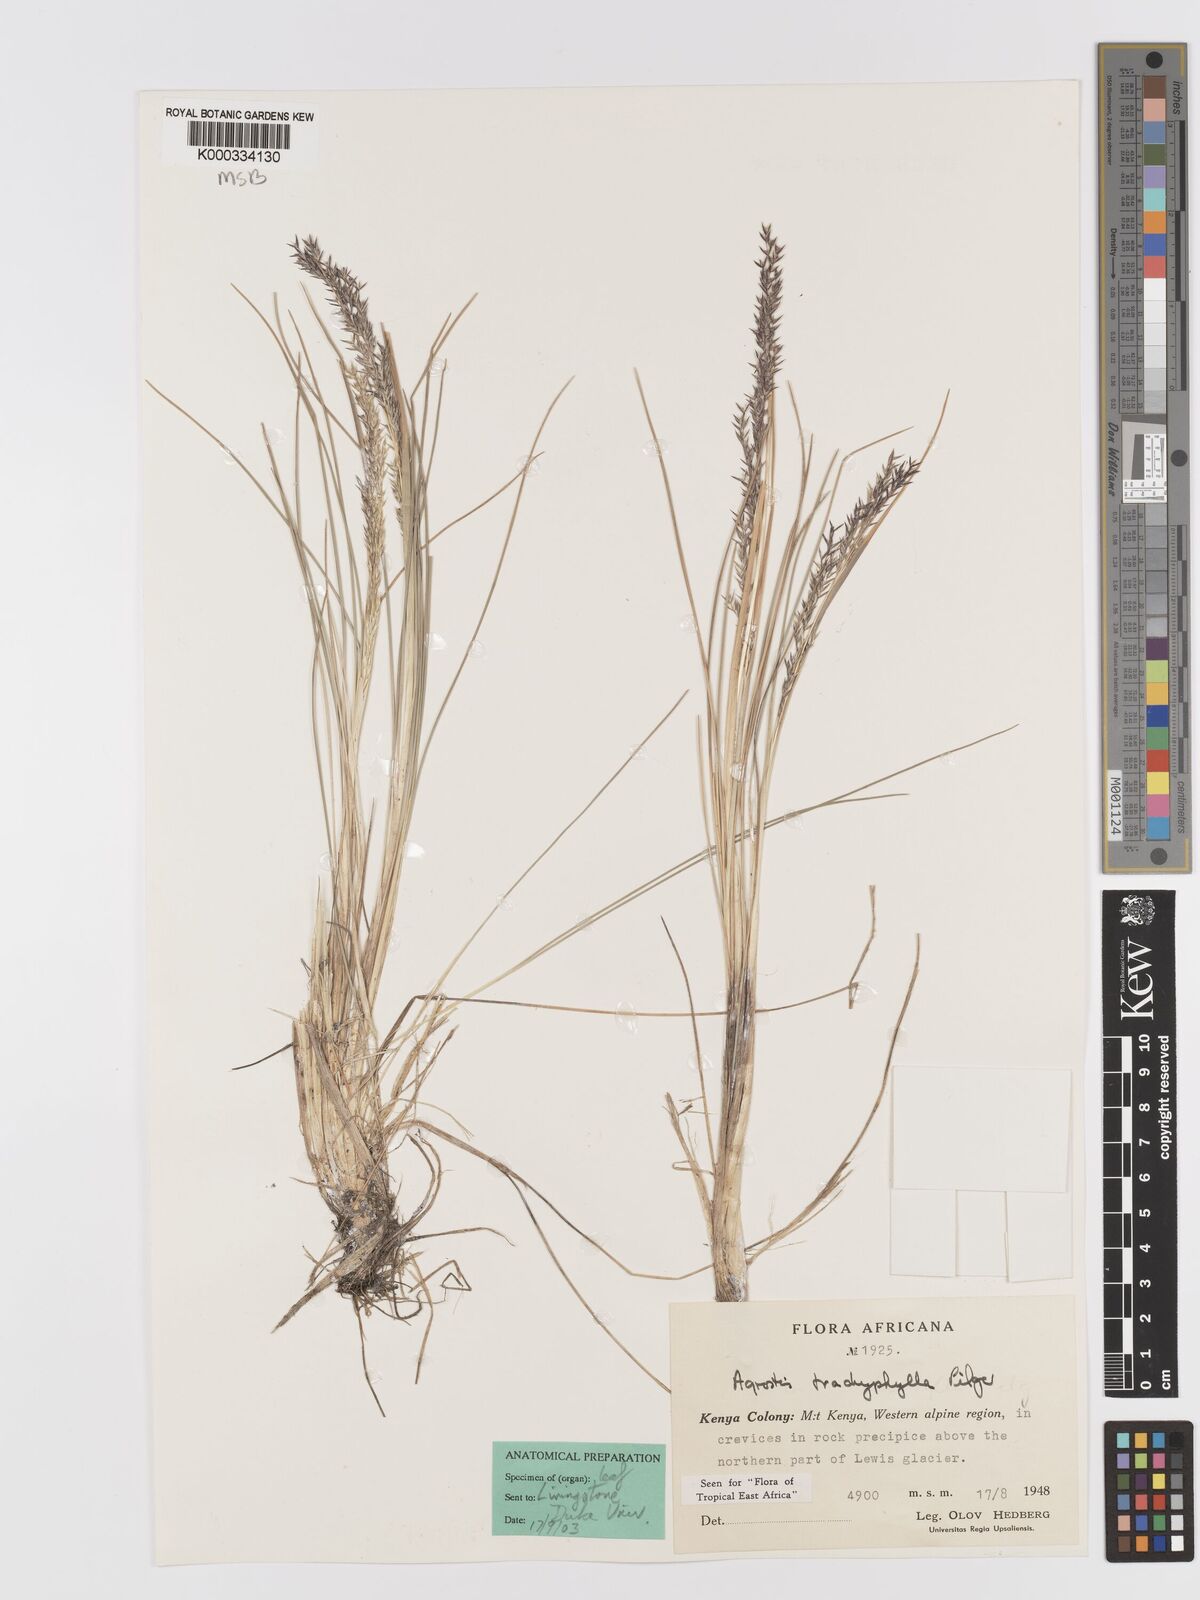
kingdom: Plantae
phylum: Tracheophyta
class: Liliopsida
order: Poales
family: Poaceae
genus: Agrostis
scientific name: Agrostis trachyphylla
